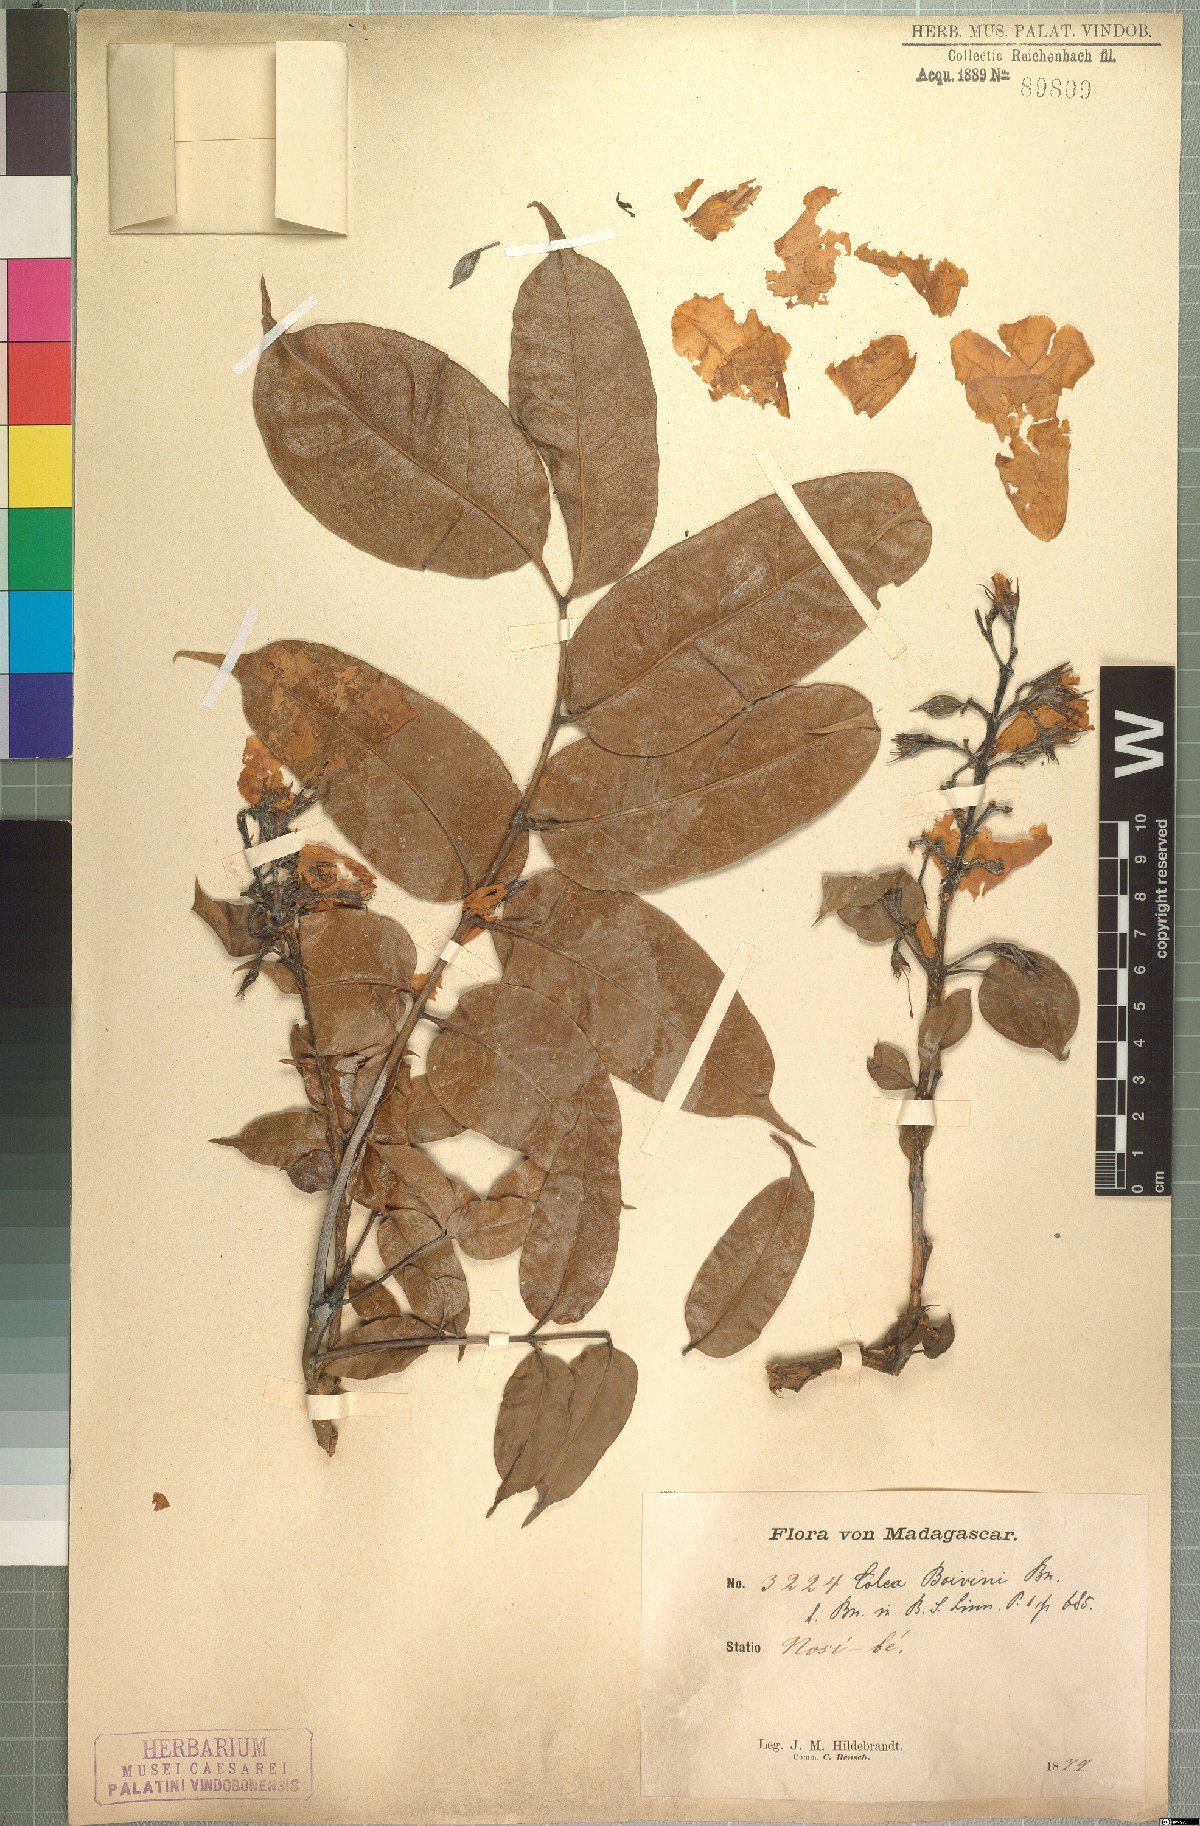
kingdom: Plantae
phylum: Tracheophyta
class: Magnoliopsida
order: Lamiales
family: Bignoniaceae
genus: Rhodocolea
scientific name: Rhodocolea boivinii
